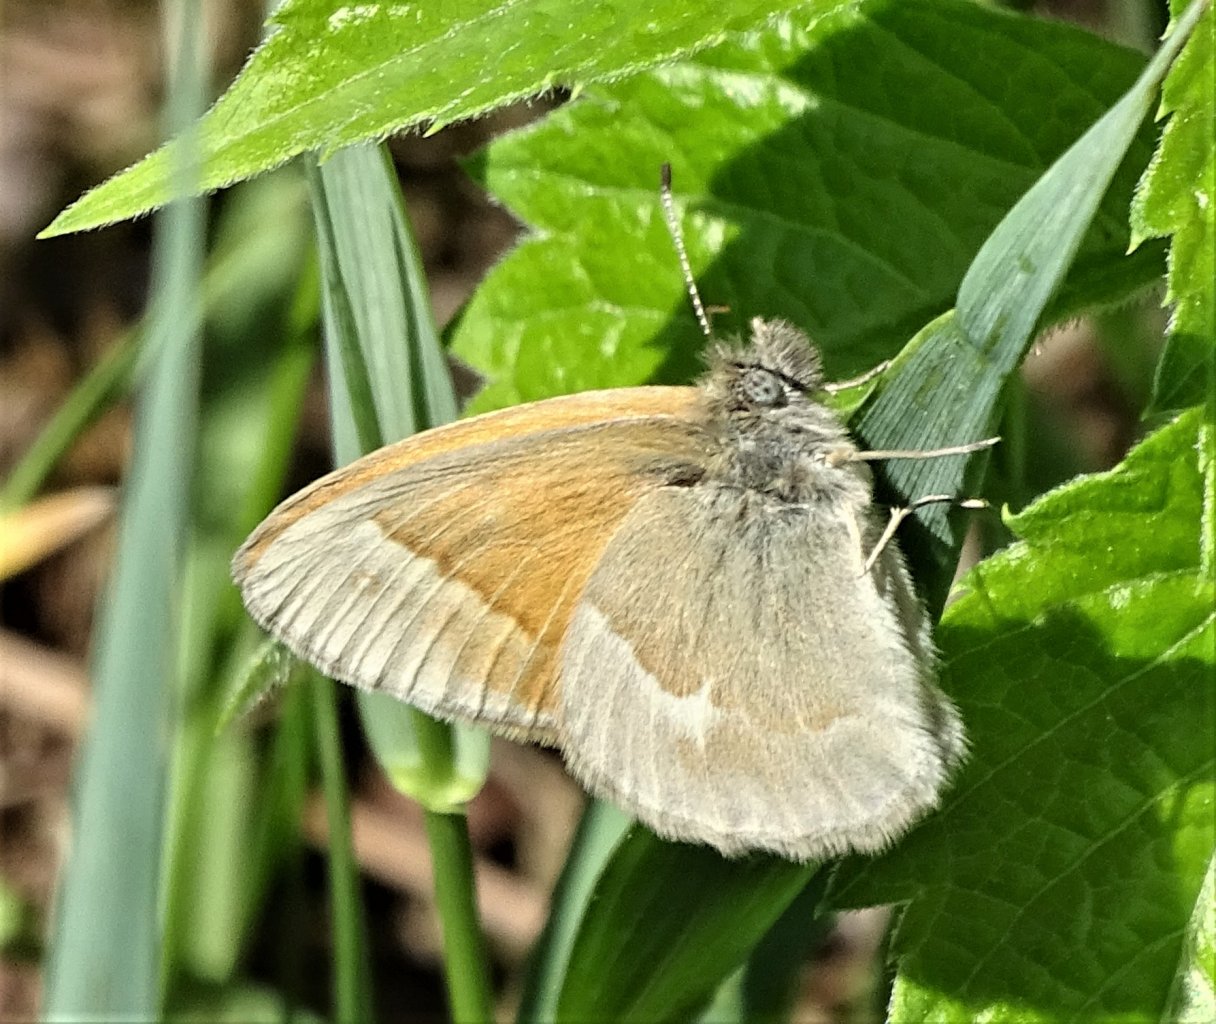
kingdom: Animalia
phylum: Arthropoda
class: Insecta
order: Lepidoptera
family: Nymphalidae
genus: Coenonympha
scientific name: Coenonympha tullia
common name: Large Heath
